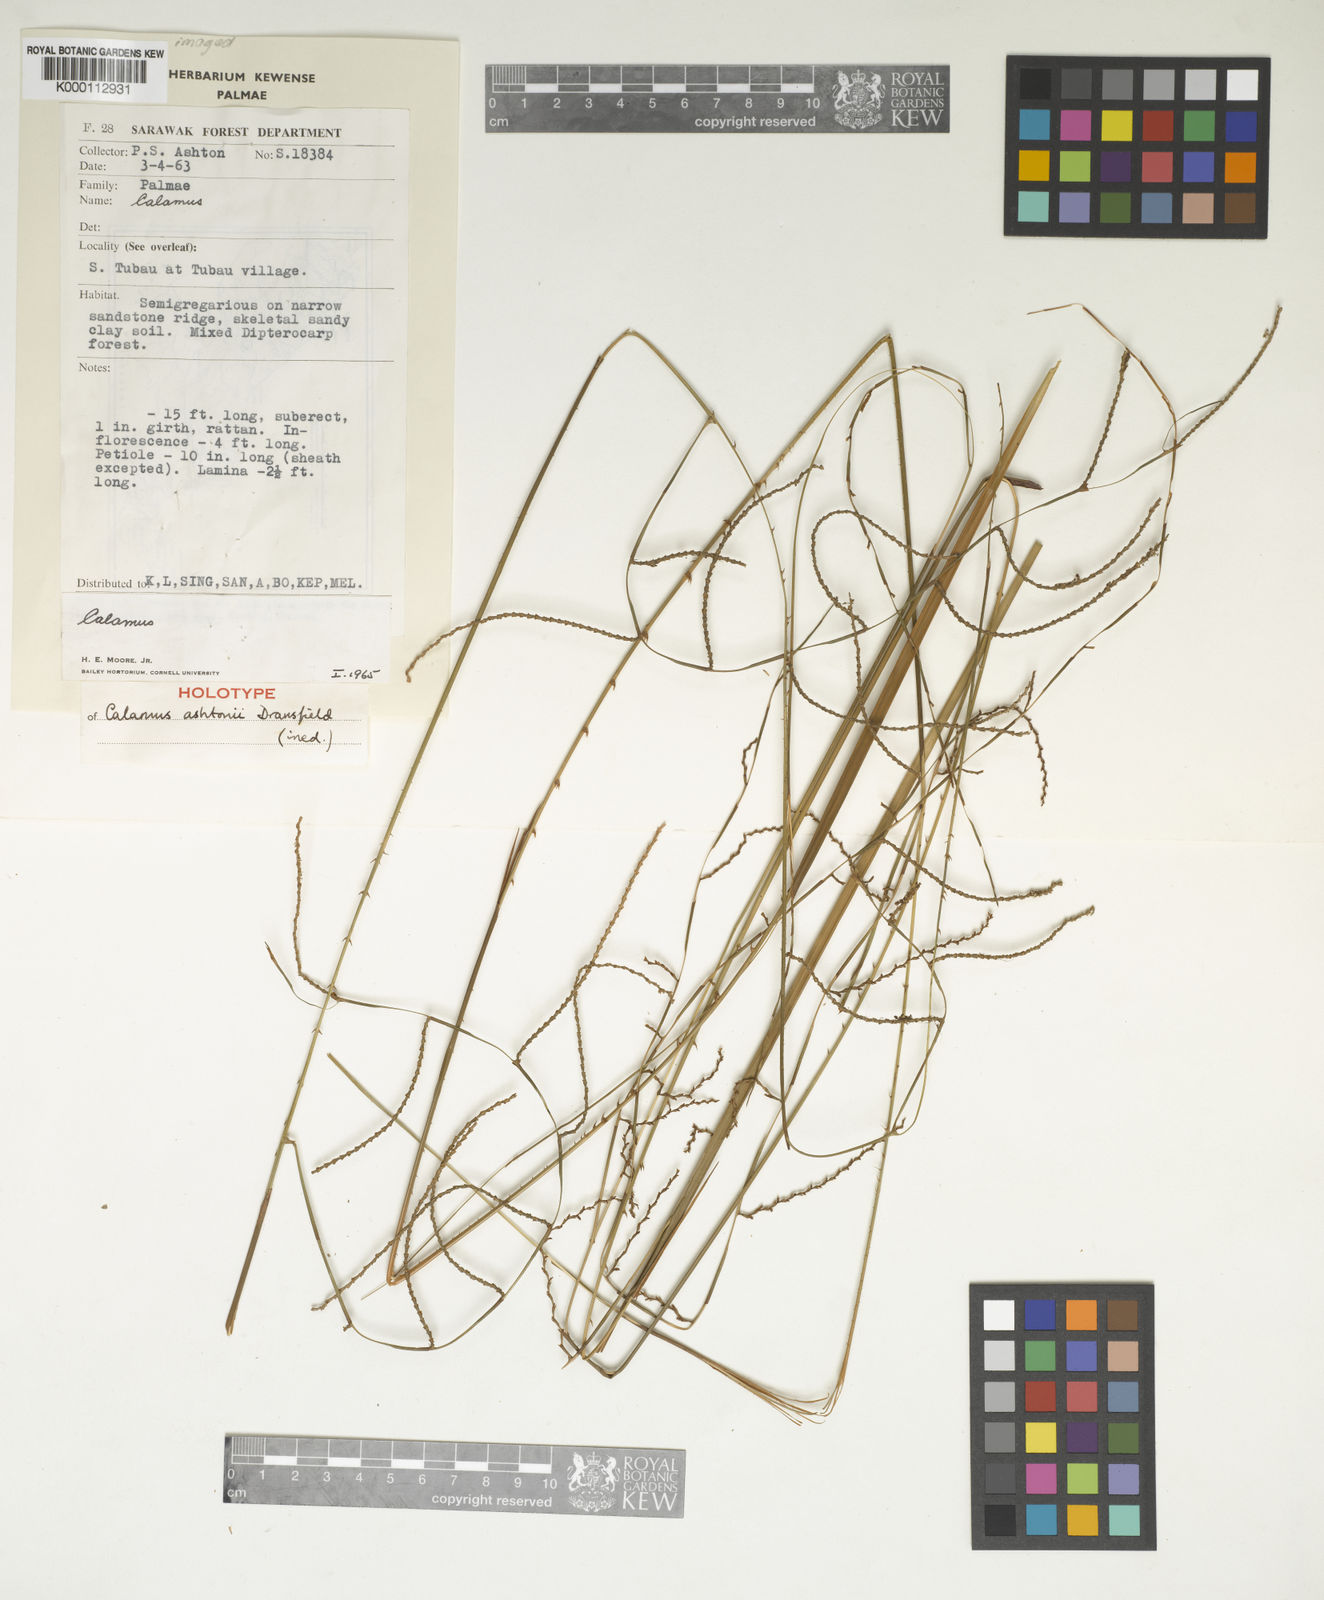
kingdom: Plantae
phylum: Tracheophyta
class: Liliopsida
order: Arecales
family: Arecaceae
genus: Calamus
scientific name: Calamus ashtonii
